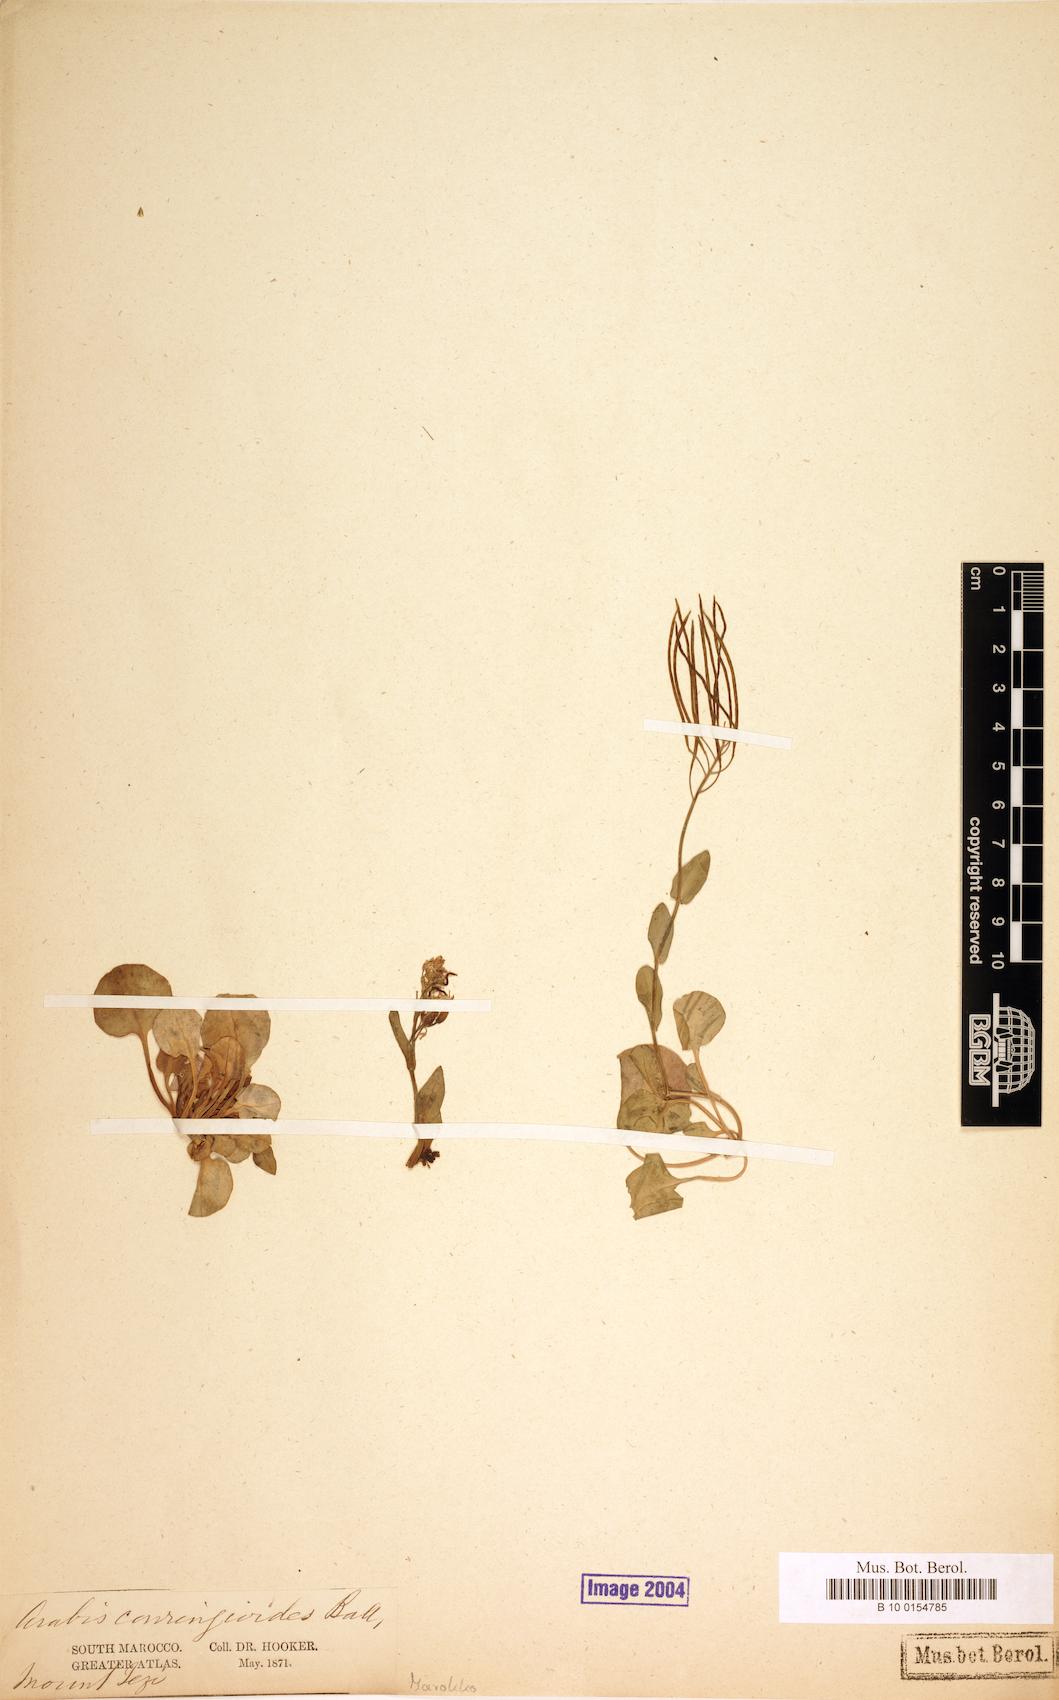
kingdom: Plantae
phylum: Tracheophyta
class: Magnoliopsida
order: Brassicales
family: Brassicaceae
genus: Arabis
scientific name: Arabis conringioides
